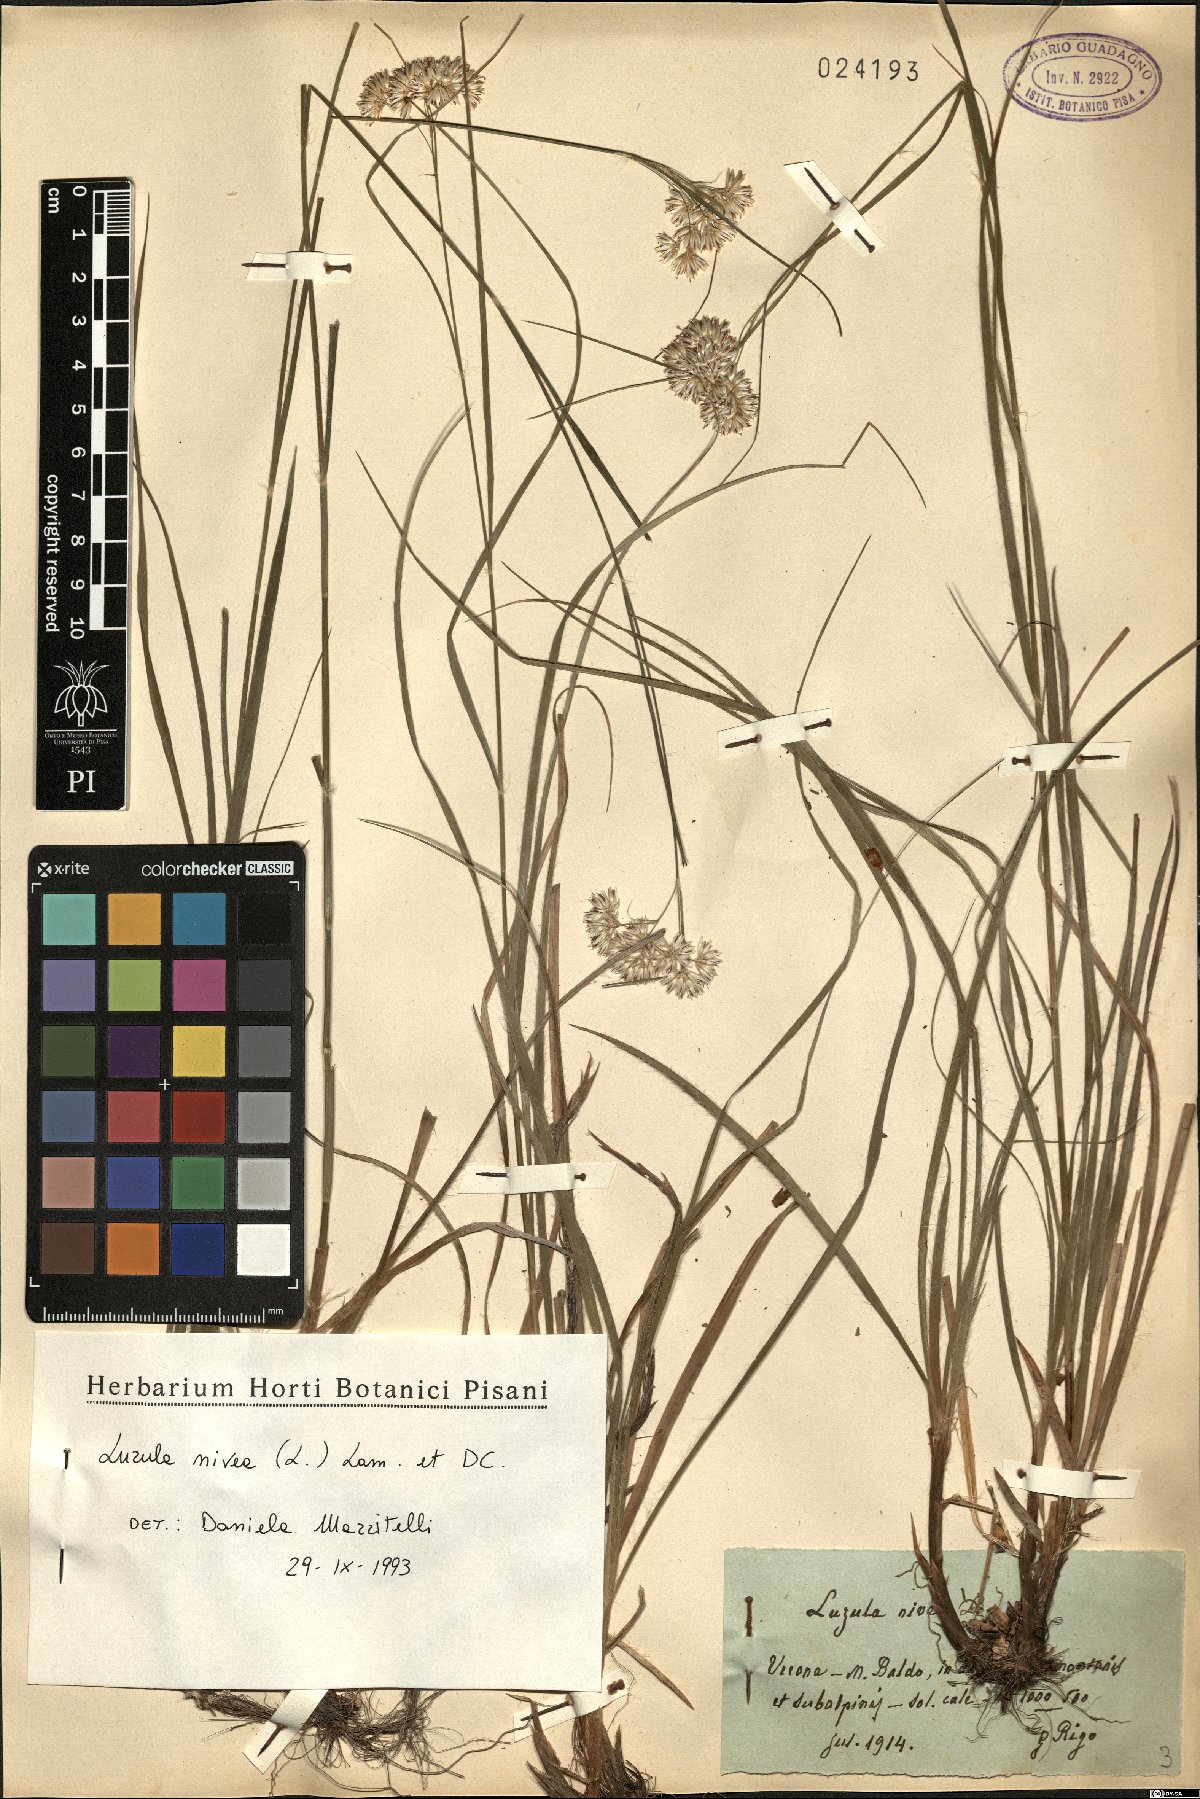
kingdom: Plantae
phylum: Tracheophyta
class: Liliopsida
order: Poales
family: Juncaceae
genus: Luzula
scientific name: Luzula nivea
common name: Snow-white wood-rush
